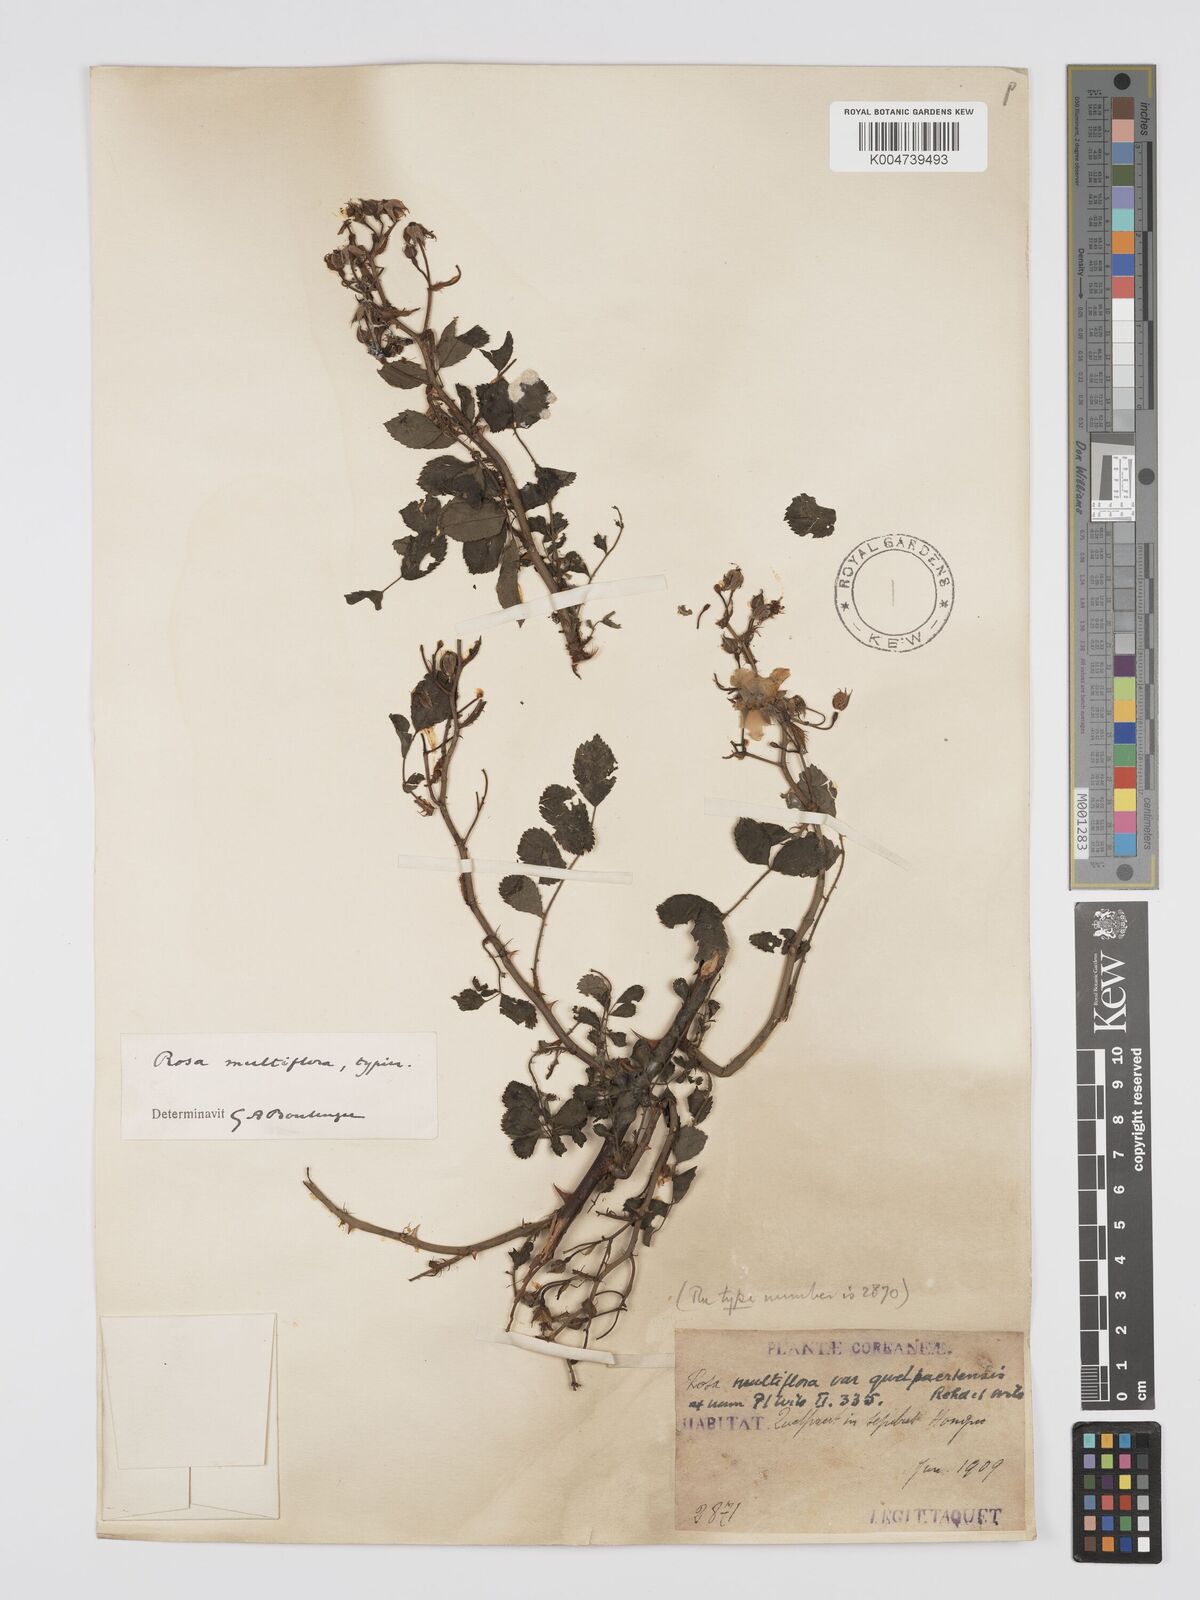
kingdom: Plantae
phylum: Tracheophyta
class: Magnoliopsida
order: Rosales
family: Rosaceae
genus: Rosa
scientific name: Rosa
